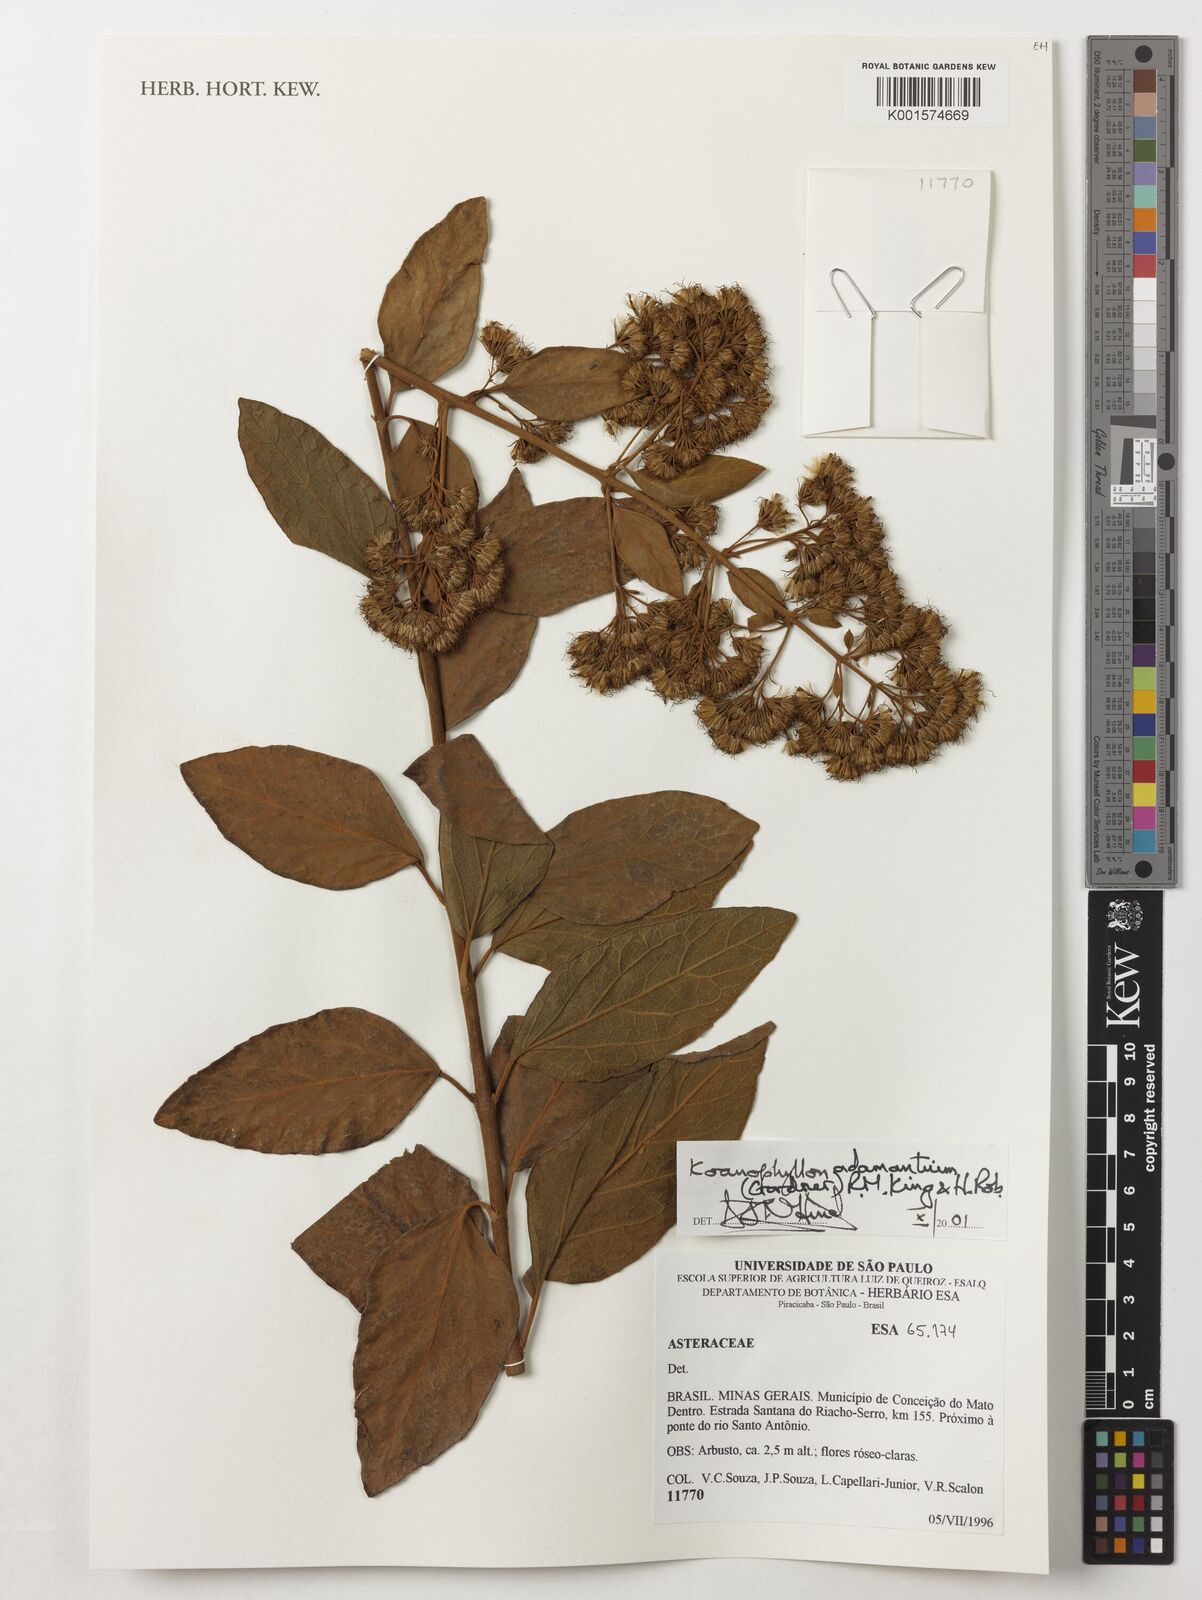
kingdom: Plantae
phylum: Tracheophyta
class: Magnoliopsida
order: Asterales
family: Asteraceae
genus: Koanophyllon
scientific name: Koanophyllon adamantium
